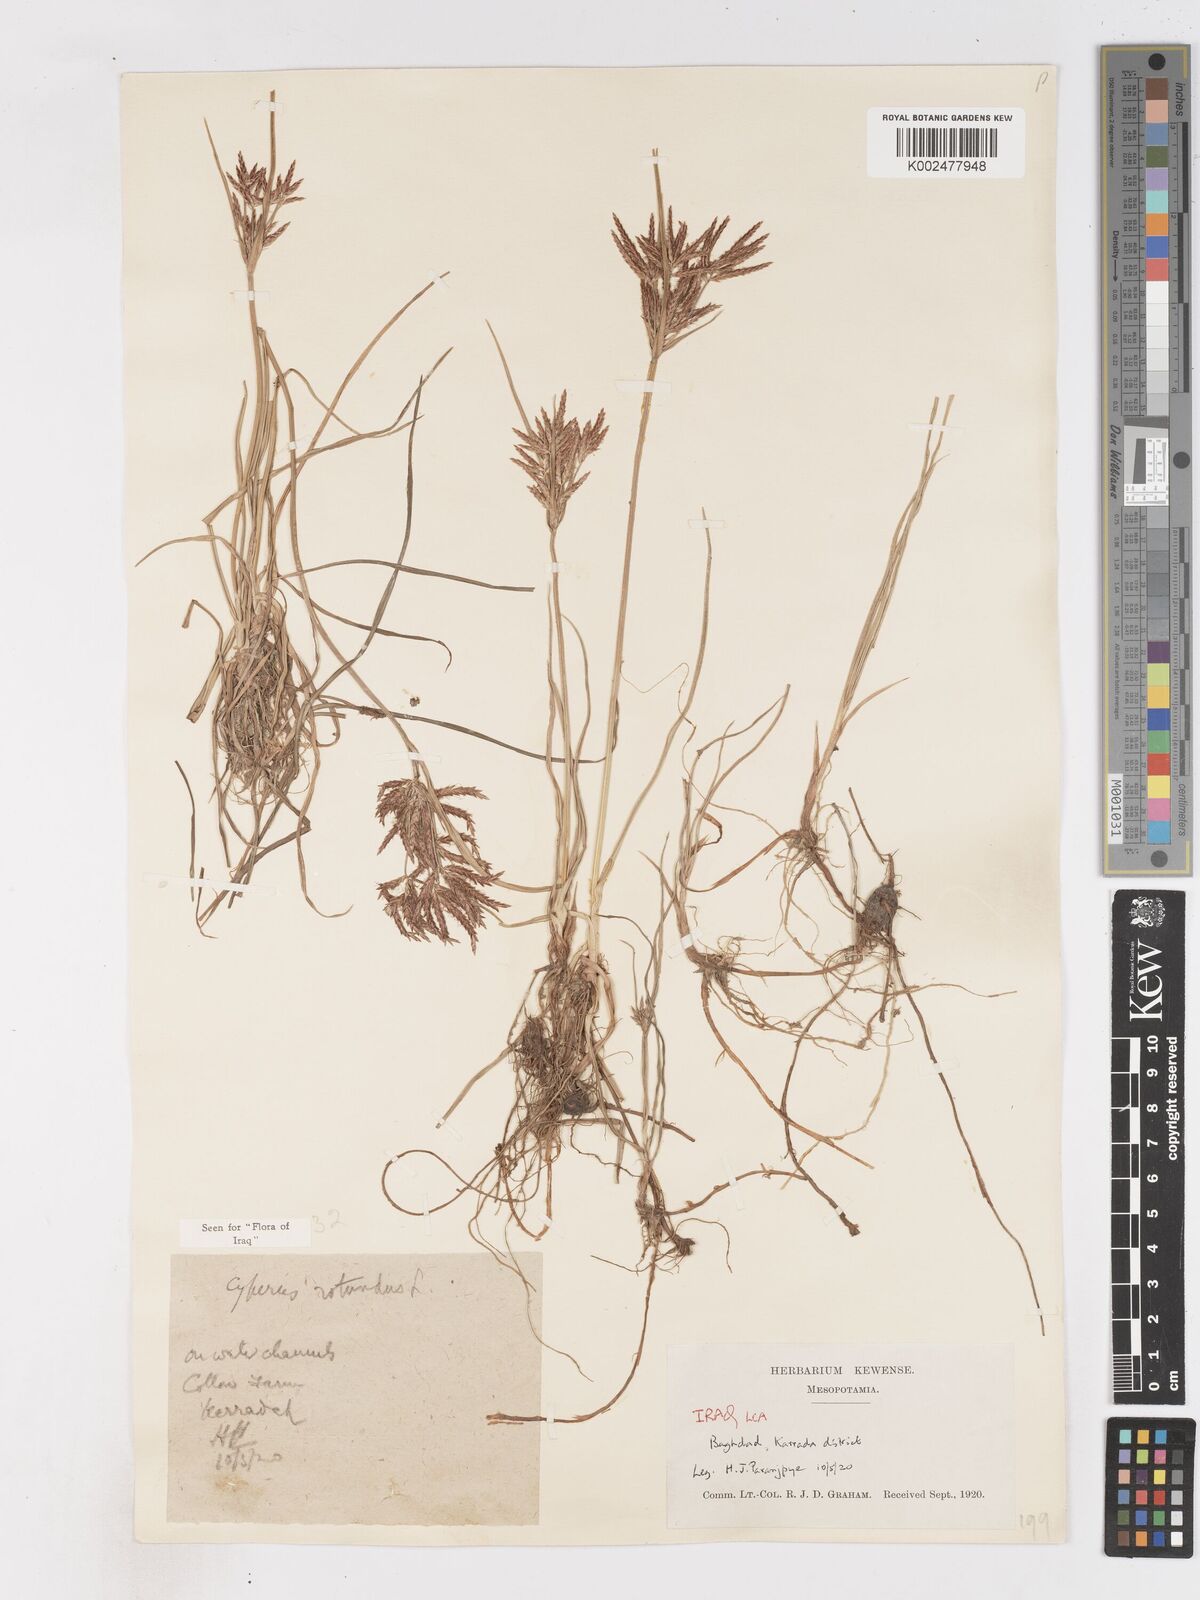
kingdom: Plantae
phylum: Tracheophyta
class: Liliopsida
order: Poales
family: Cyperaceae
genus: Cyperus
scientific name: Cyperus rotundus
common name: Nutgrass
